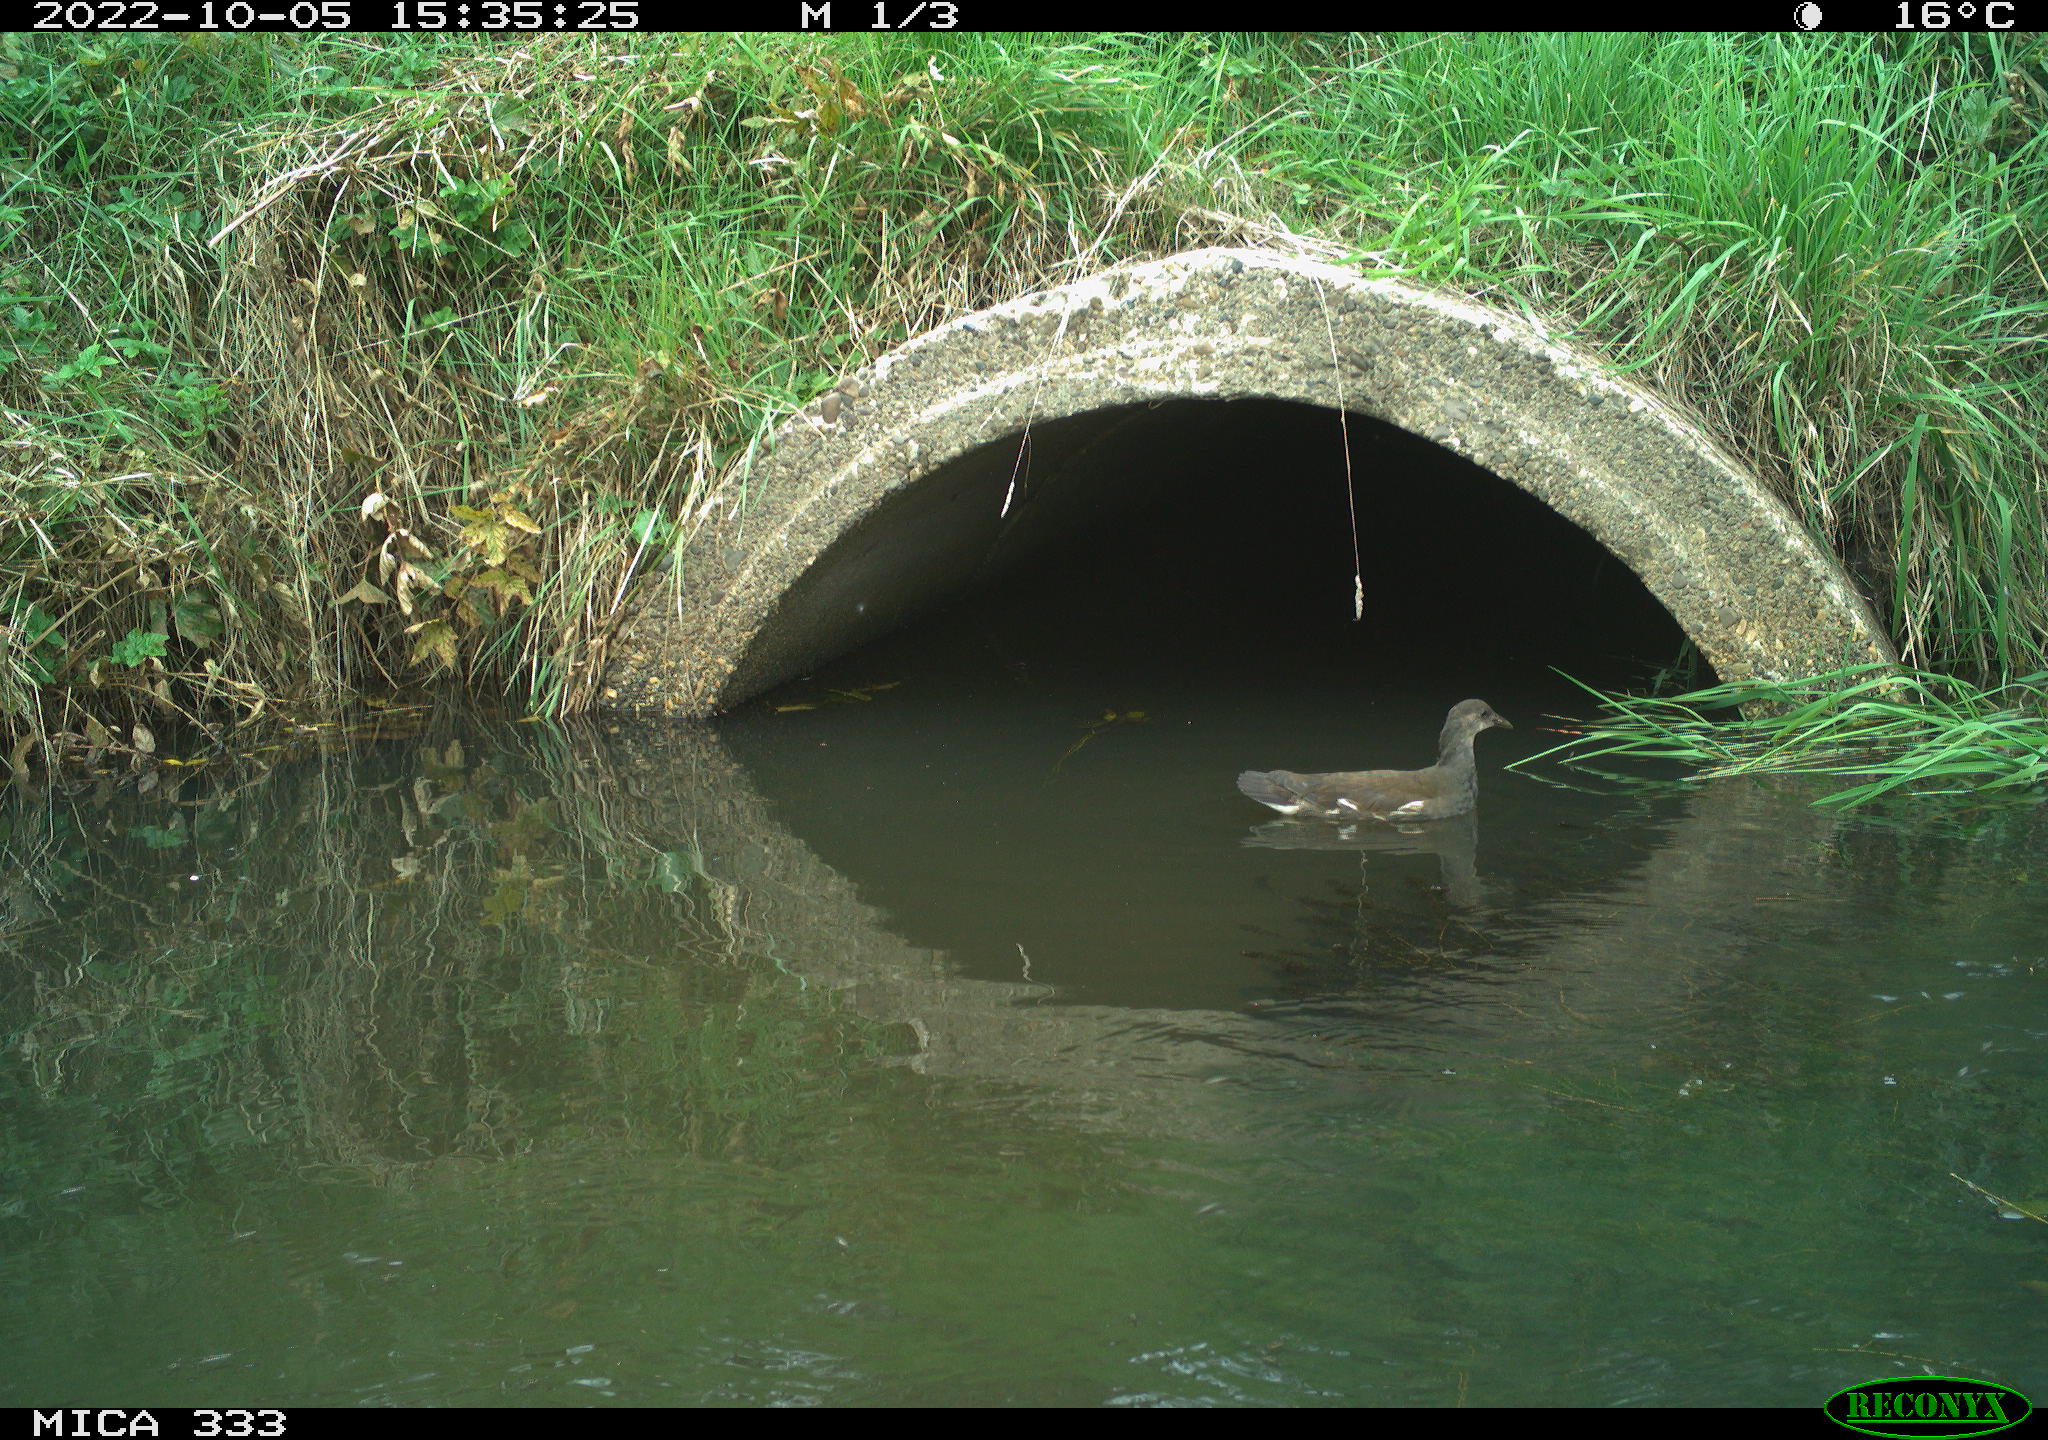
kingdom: Animalia
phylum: Chordata
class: Aves
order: Gruiformes
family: Rallidae
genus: Gallinula
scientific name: Gallinula chloropus
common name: Common moorhen
